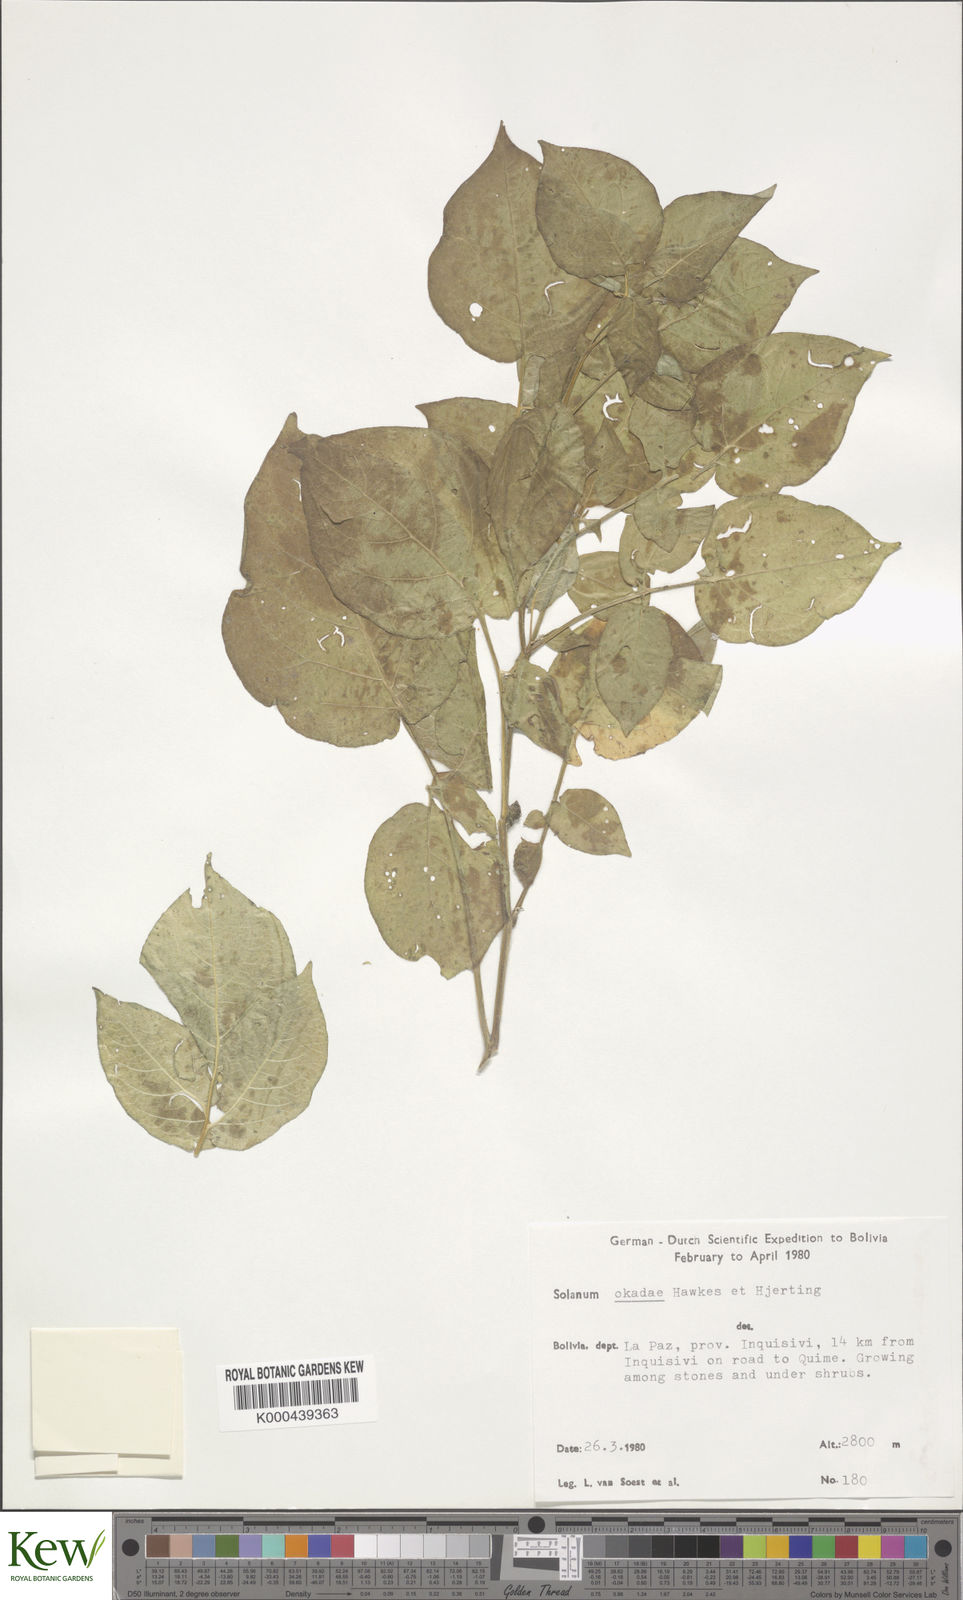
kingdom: Plantae
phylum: Tracheophyta
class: Magnoliopsida
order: Solanales
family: Solanaceae
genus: Solanum
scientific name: Solanum okadae
